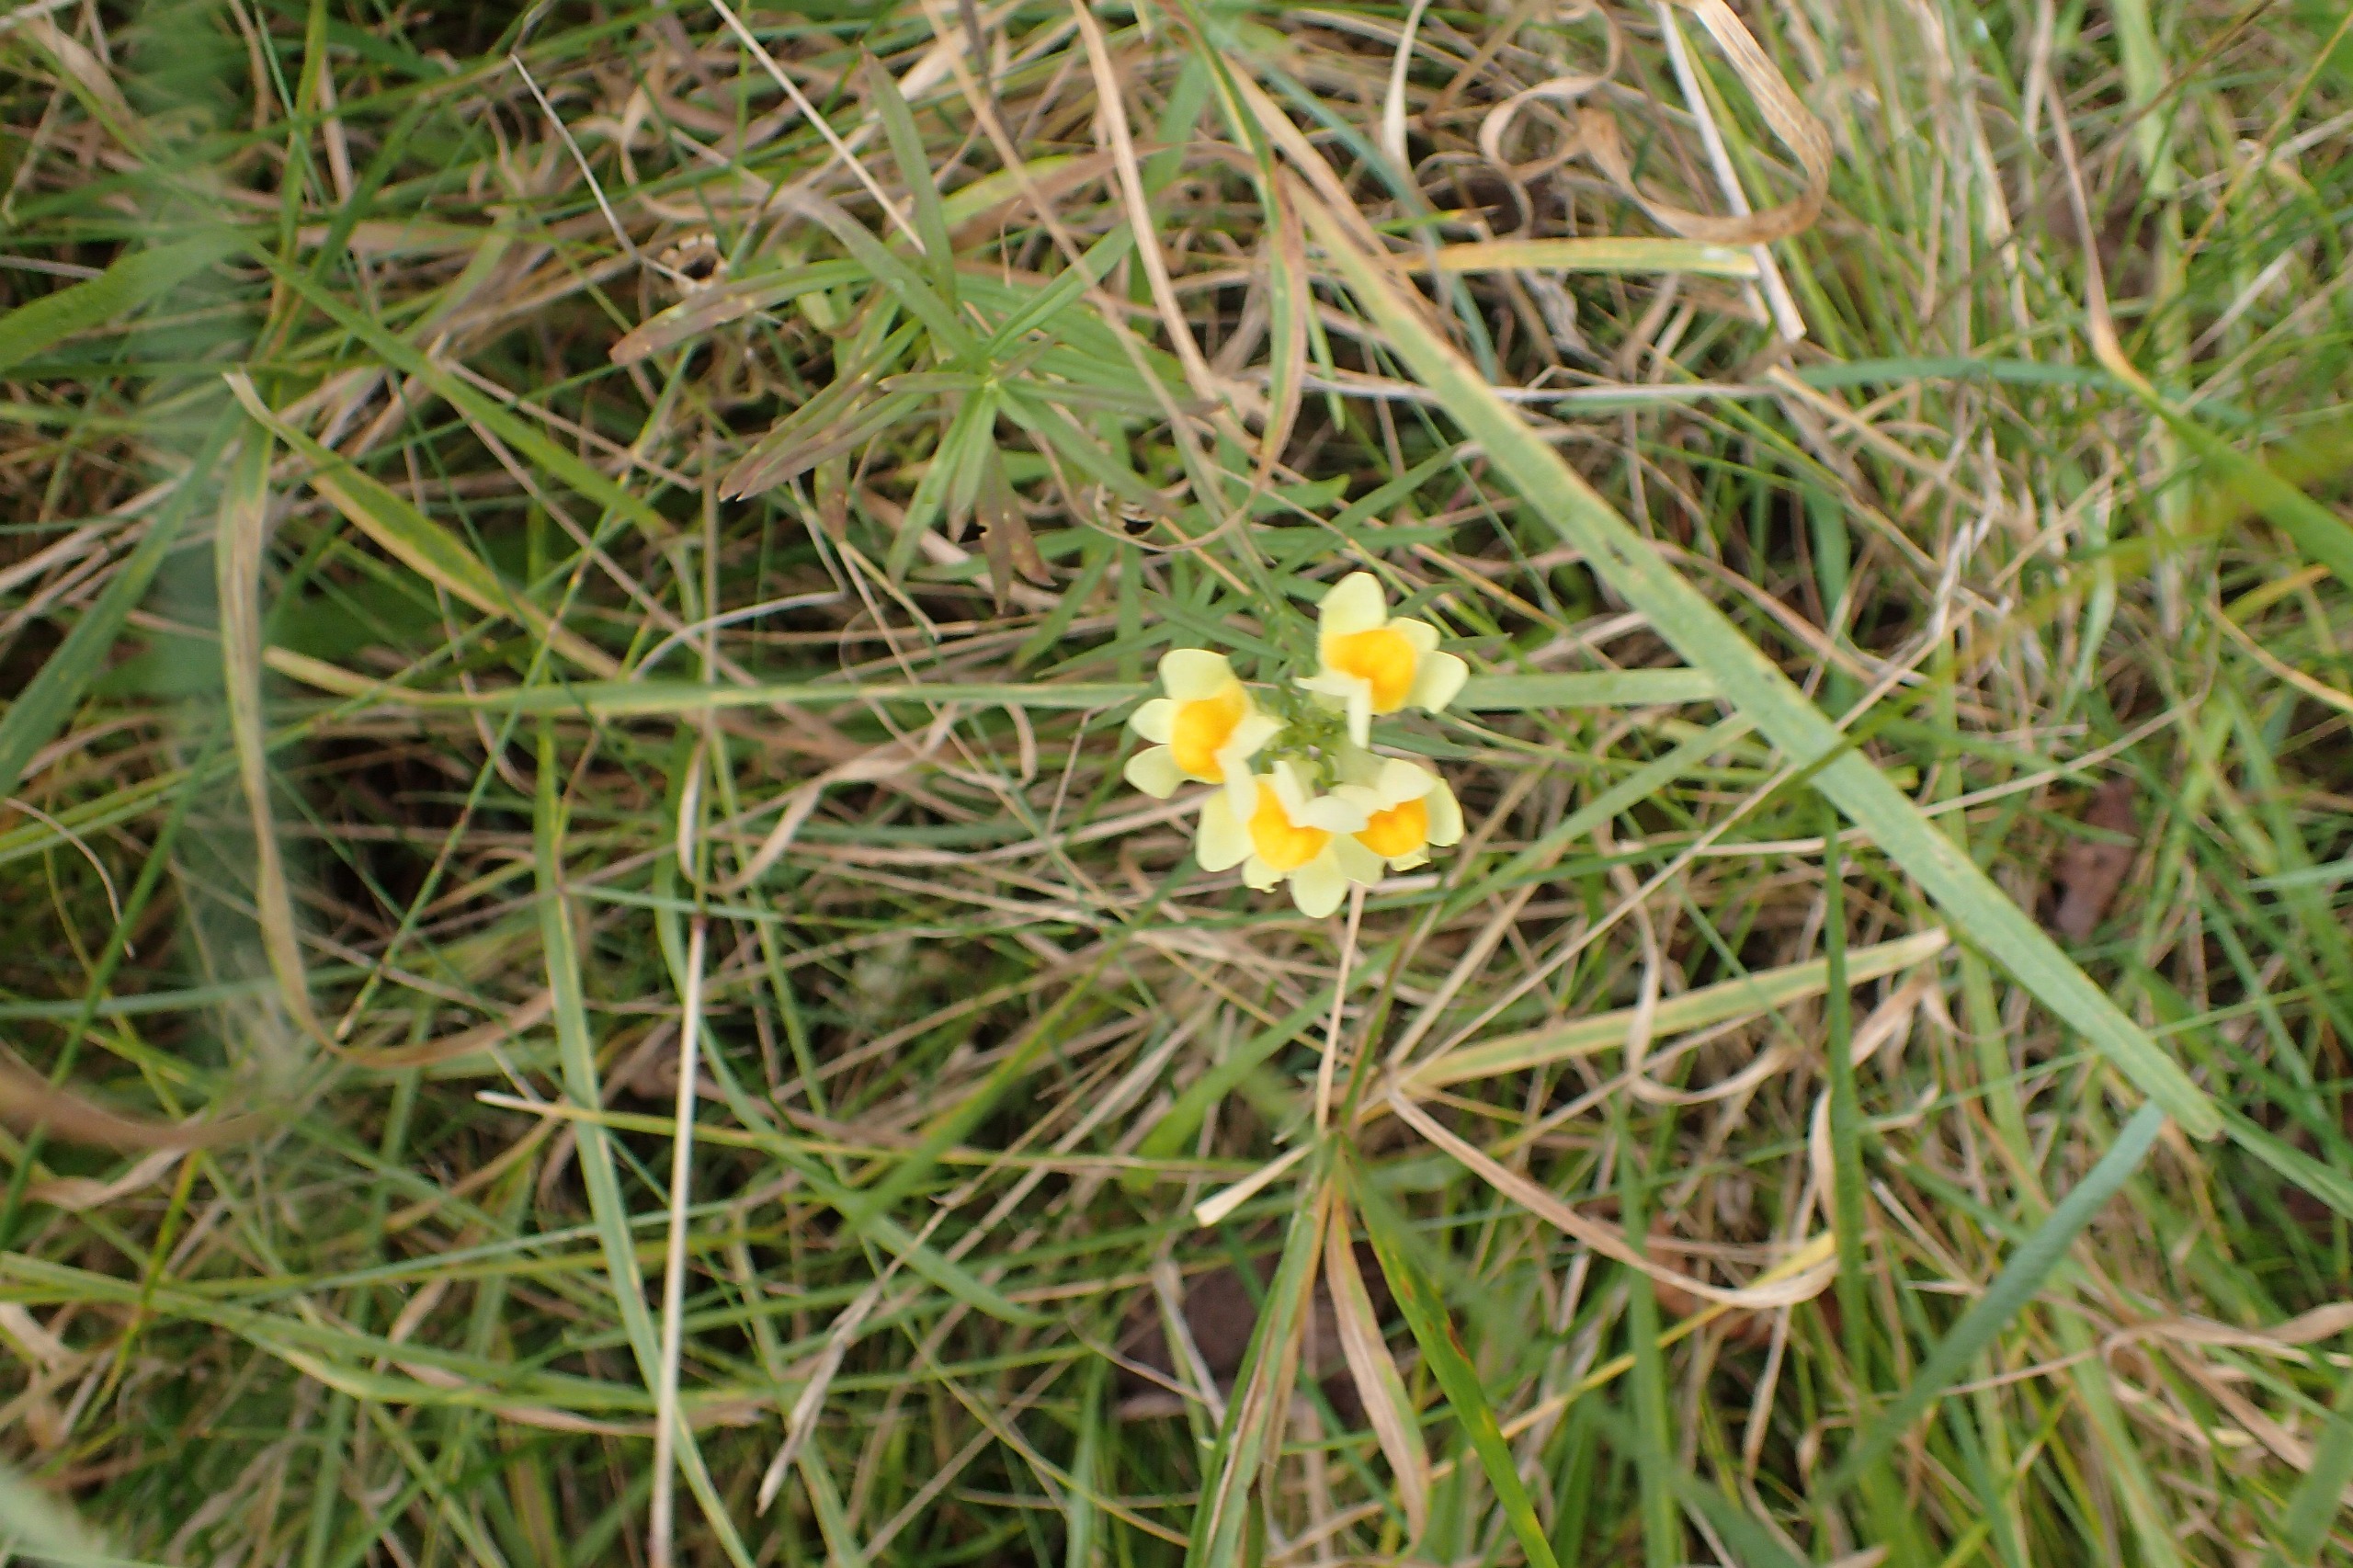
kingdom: Plantae
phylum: Tracheophyta
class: Magnoliopsida
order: Lamiales
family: Plantaginaceae
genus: Linaria
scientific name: Linaria vulgaris
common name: Almindelig torskemund
